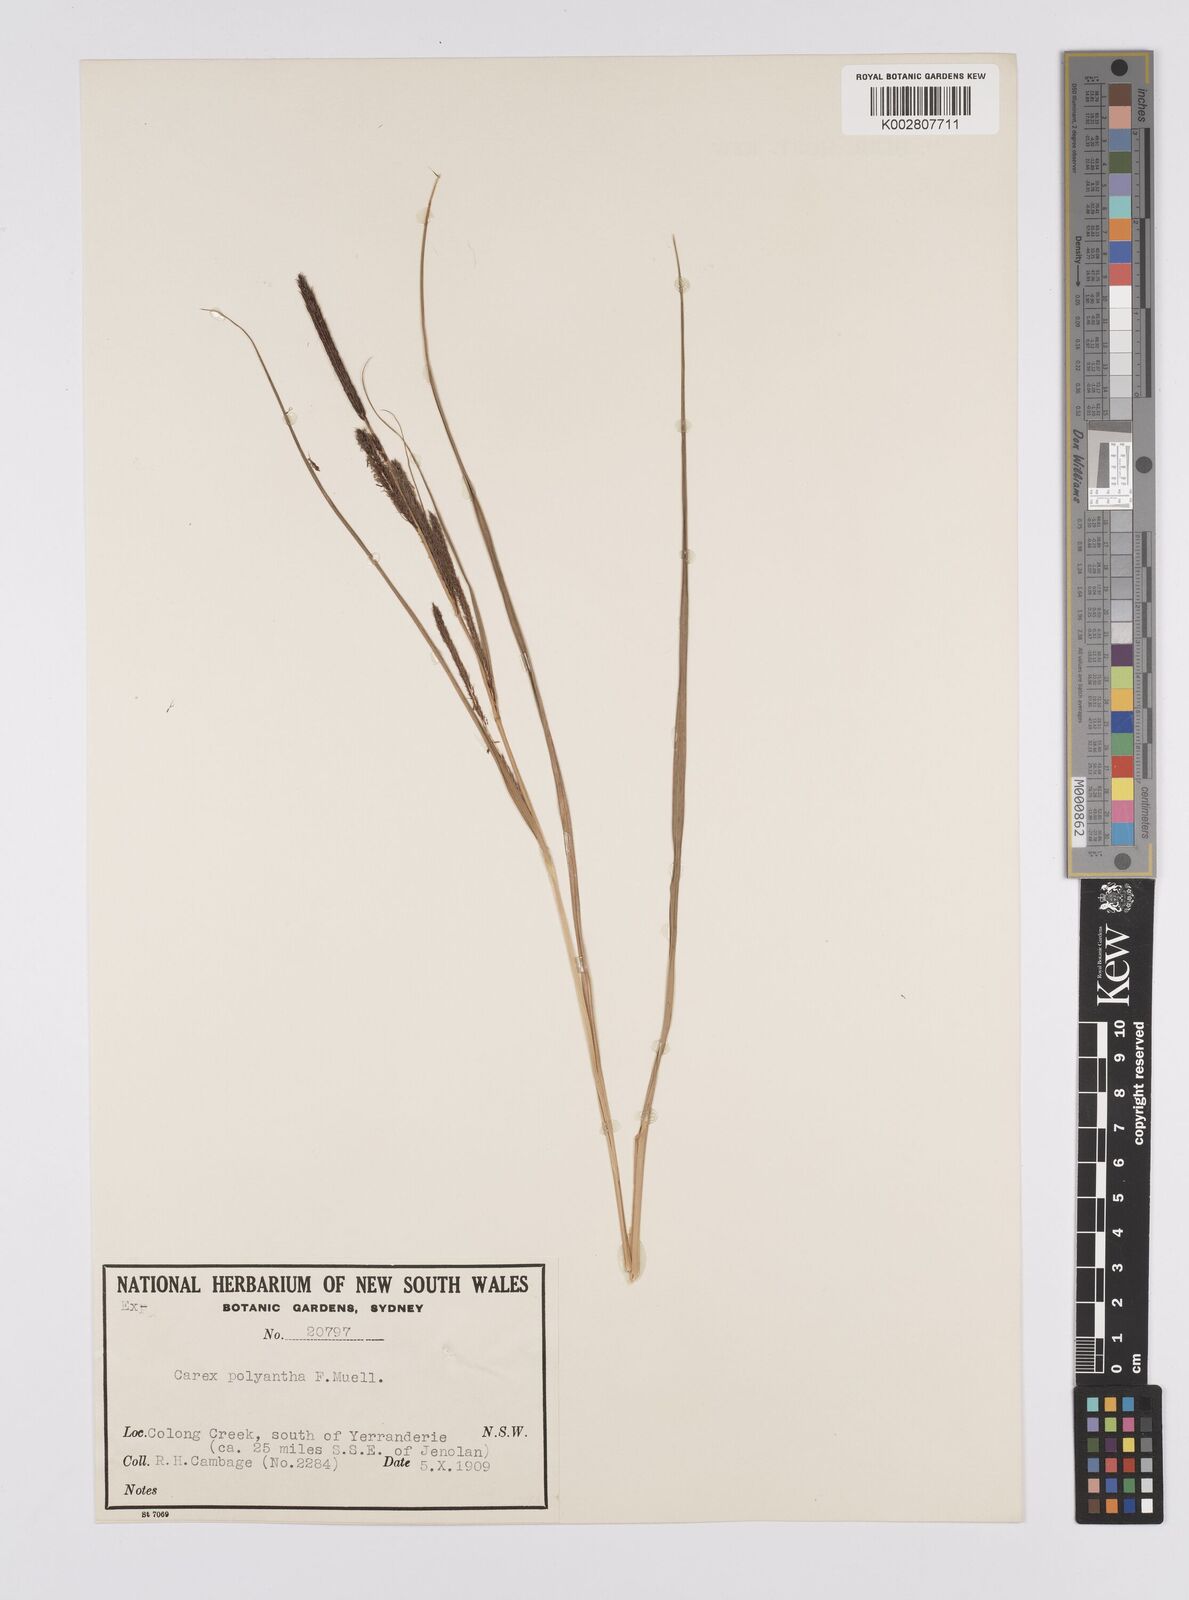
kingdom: Plantae
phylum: Tracheophyta
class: Liliopsida
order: Poales
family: Cyperaceae
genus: Carex
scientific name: Carex polyantha
